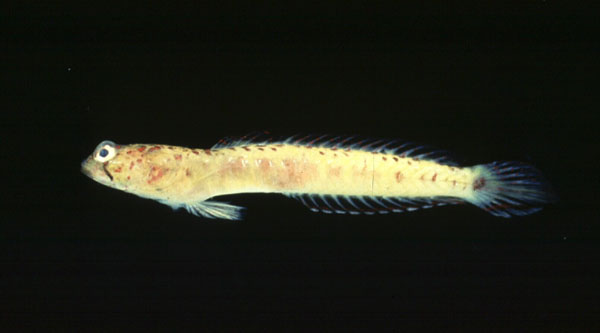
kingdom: Animalia
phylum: Chordata
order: Perciformes
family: Gobiidae
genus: Croilia
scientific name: Croilia mossambica
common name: Burrowing goby
